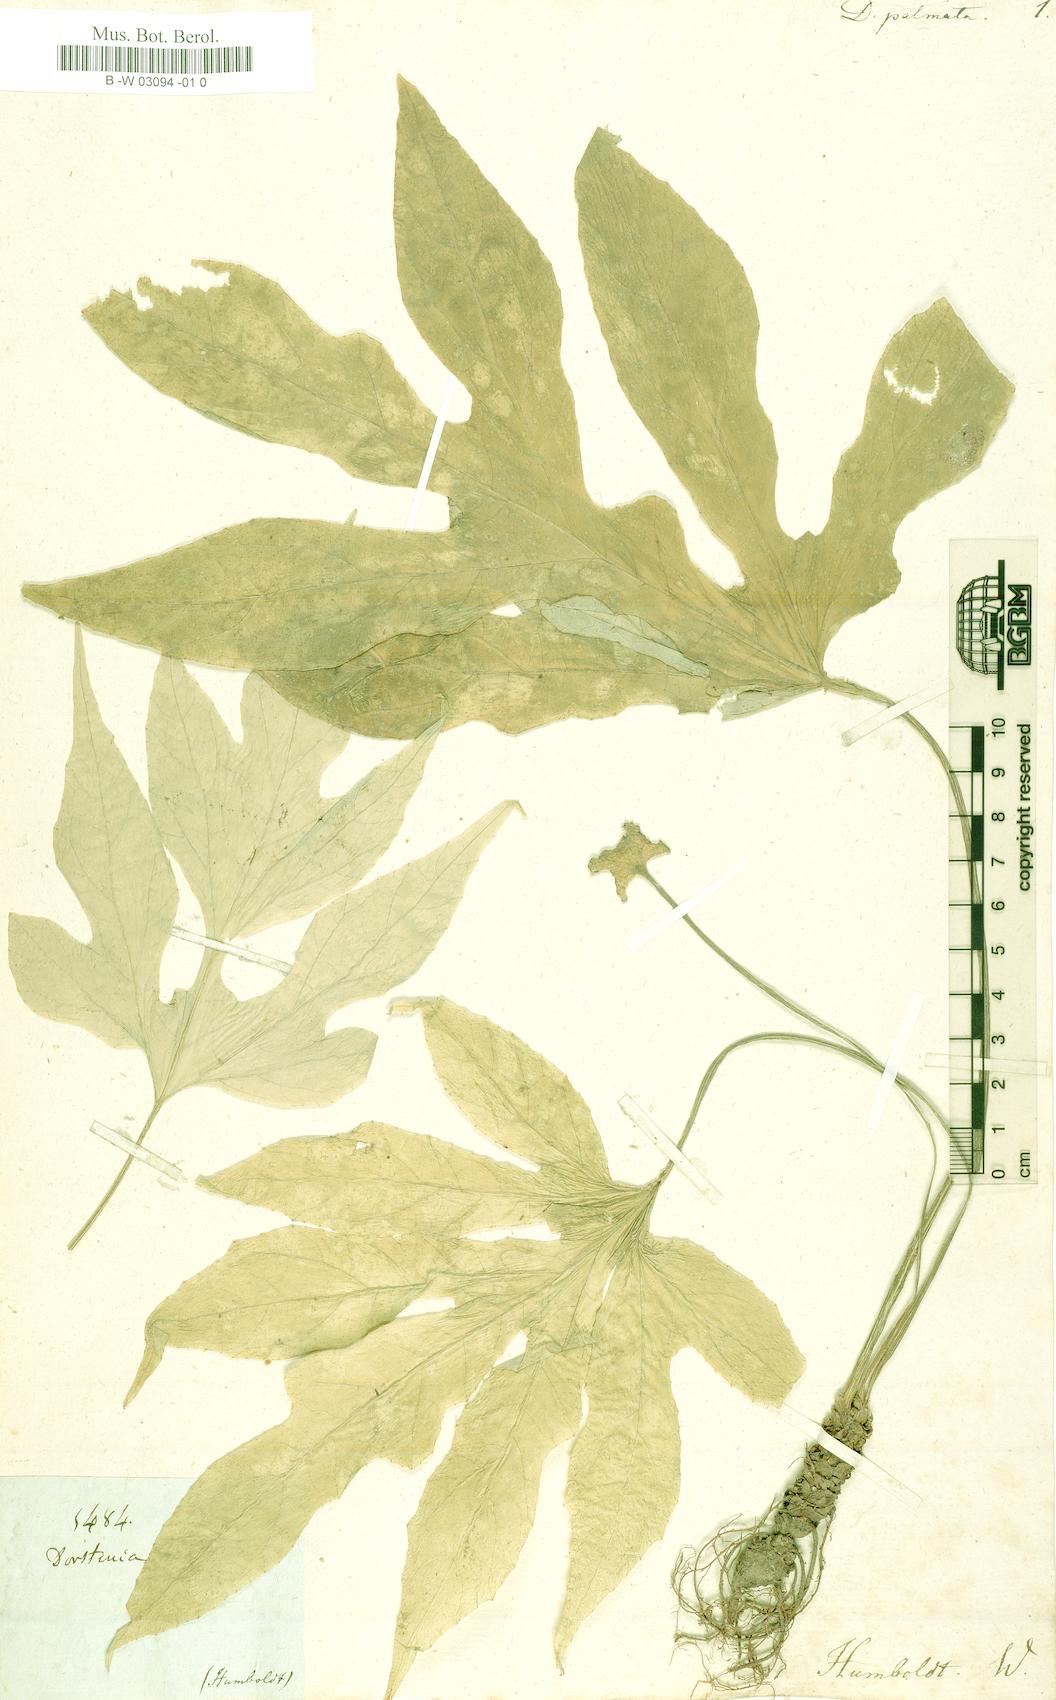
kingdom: Plantae
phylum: Tracheophyta
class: Magnoliopsida
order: Rosales
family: Moraceae
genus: Dorstenia
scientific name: Dorstenia
